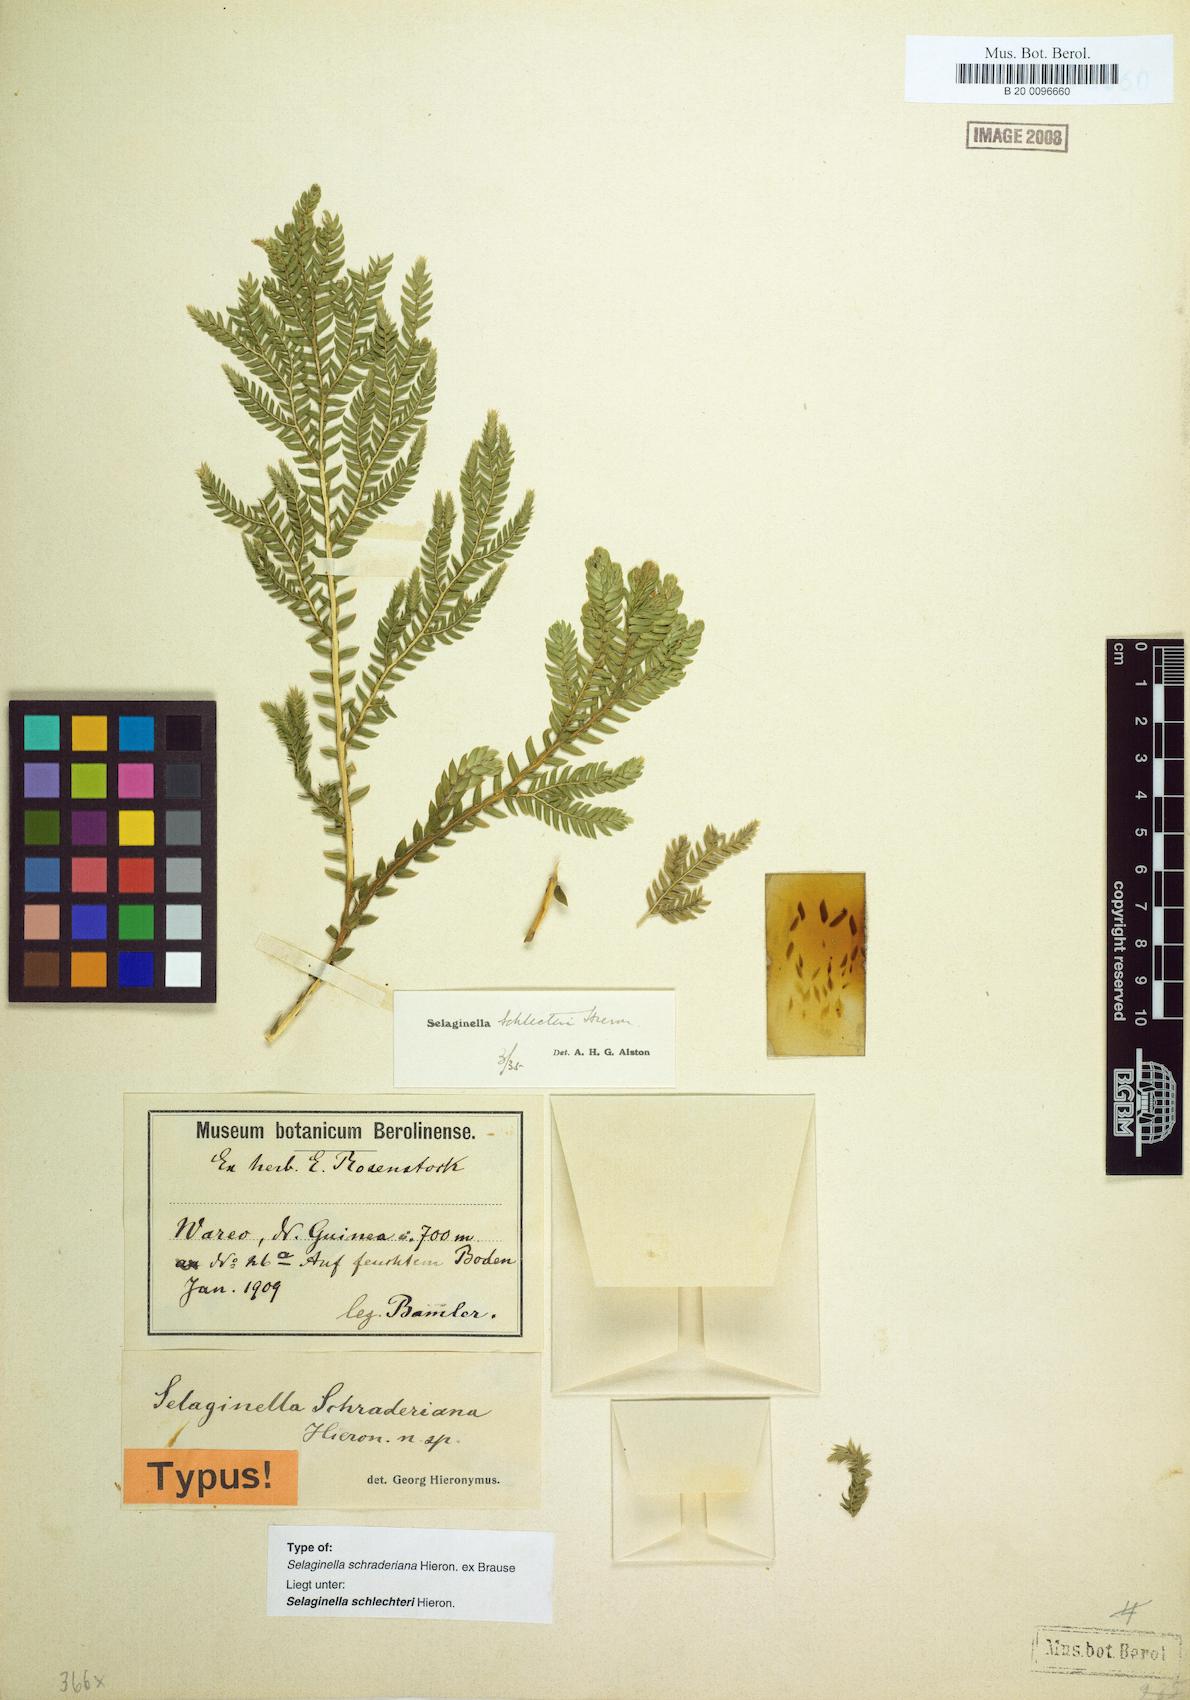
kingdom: Plantae
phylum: Tracheophyta
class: Lycopodiopsida
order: Selaginellales
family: Selaginellaceae
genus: Selaginella
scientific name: Selaginella schlechteri
